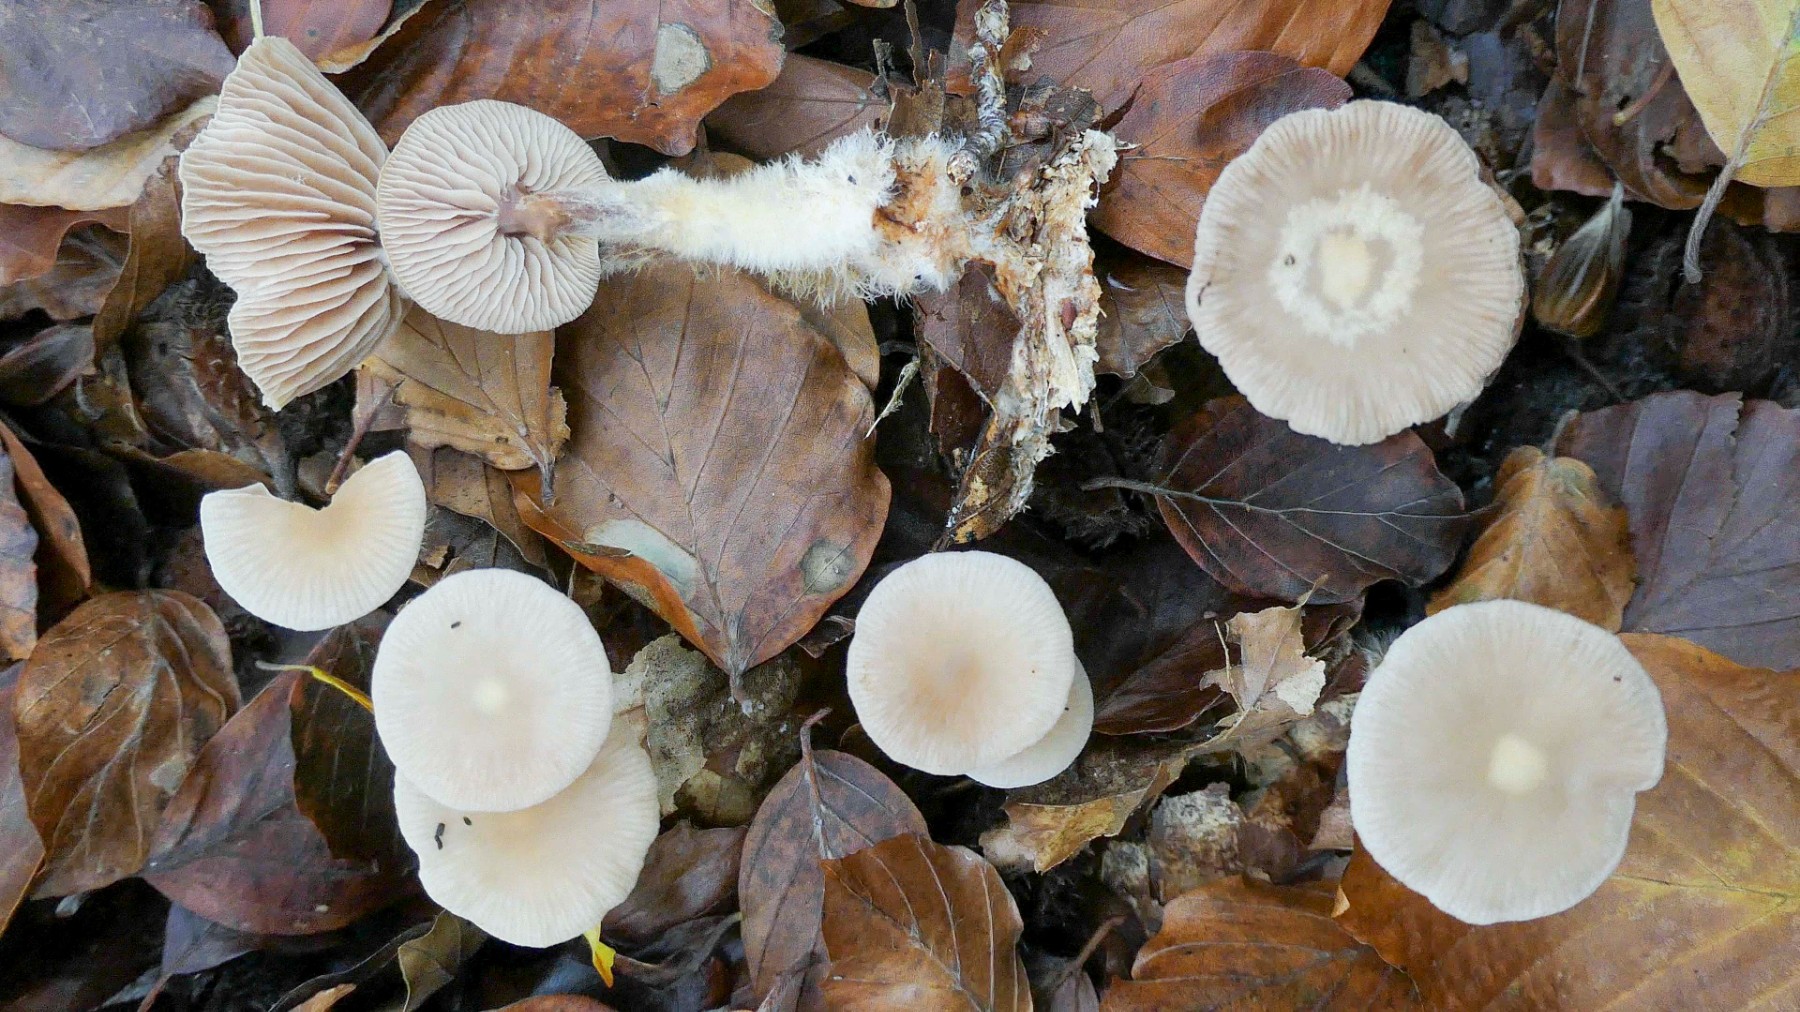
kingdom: Fungi
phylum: Basidiomycota
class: Agaricomycetes
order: Agaricales
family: Omphalotaceae
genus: Gymnopus
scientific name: Gymnopus fagiphilus
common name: bøgeløv-fladhat
